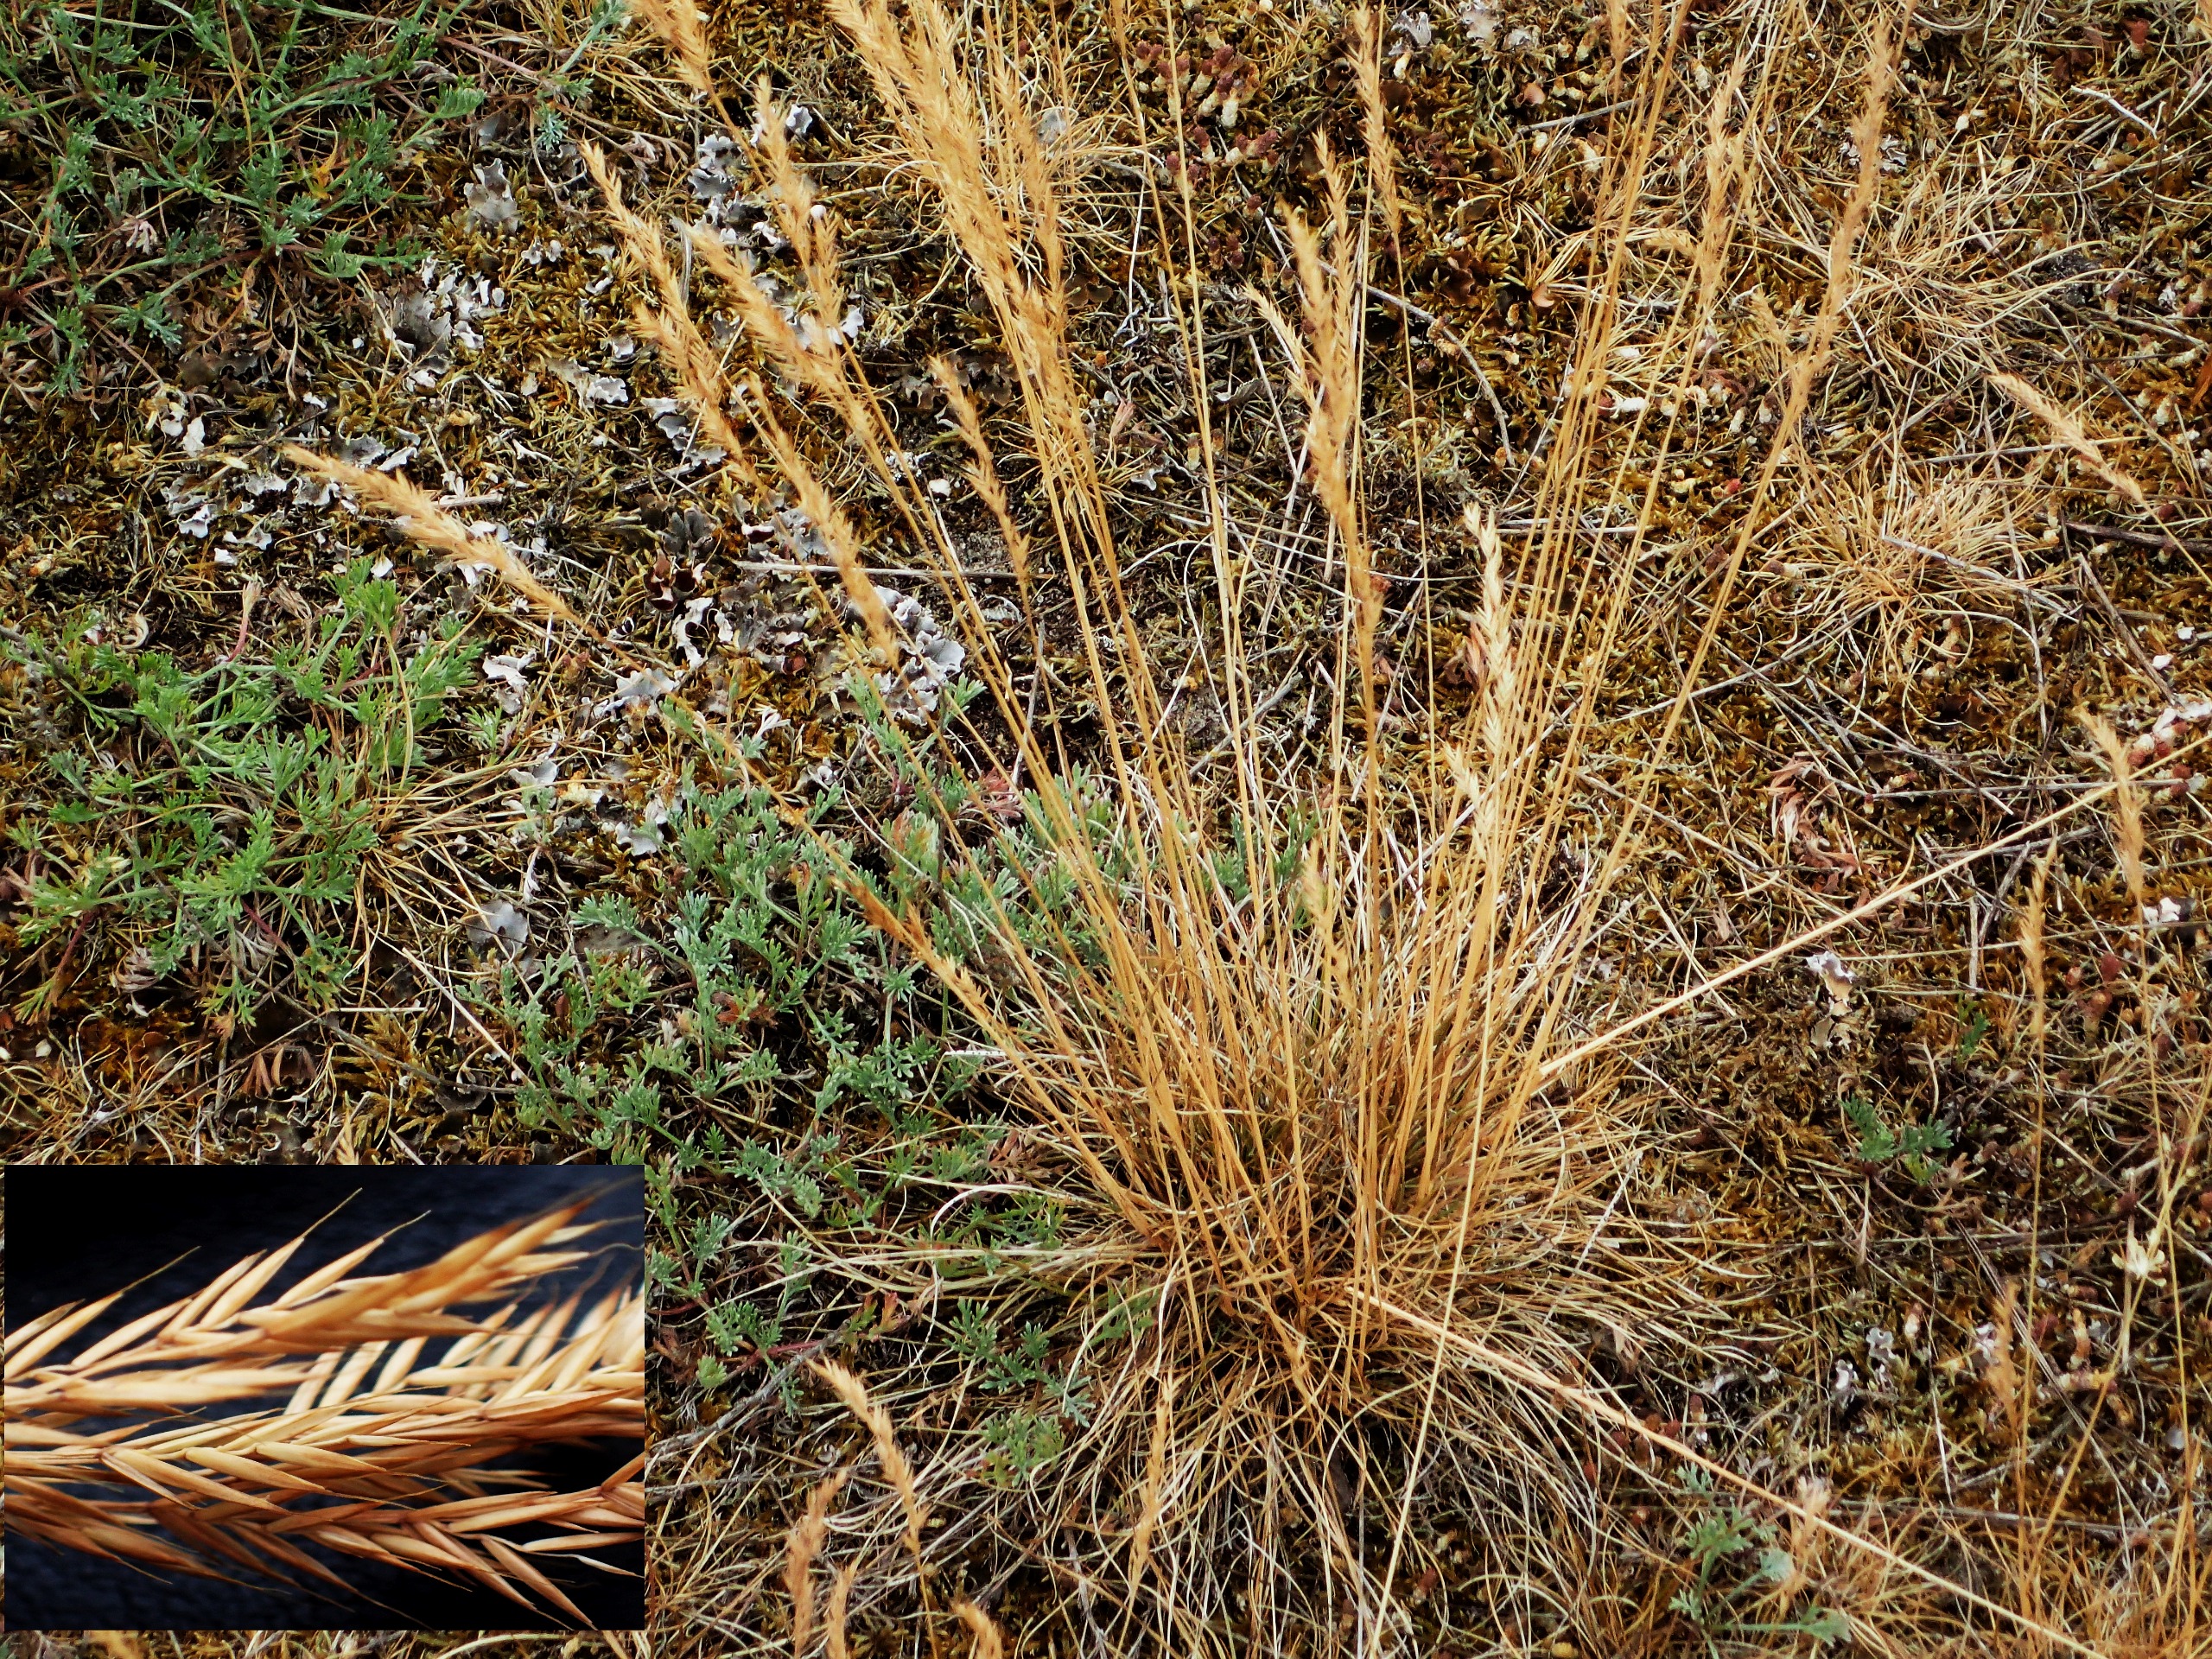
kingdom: Plantae
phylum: Tracheophyta
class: Liliopsida
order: Poales
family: Poaceae
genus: Festuca
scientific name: Festuca ovina
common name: Fåre-svingel
